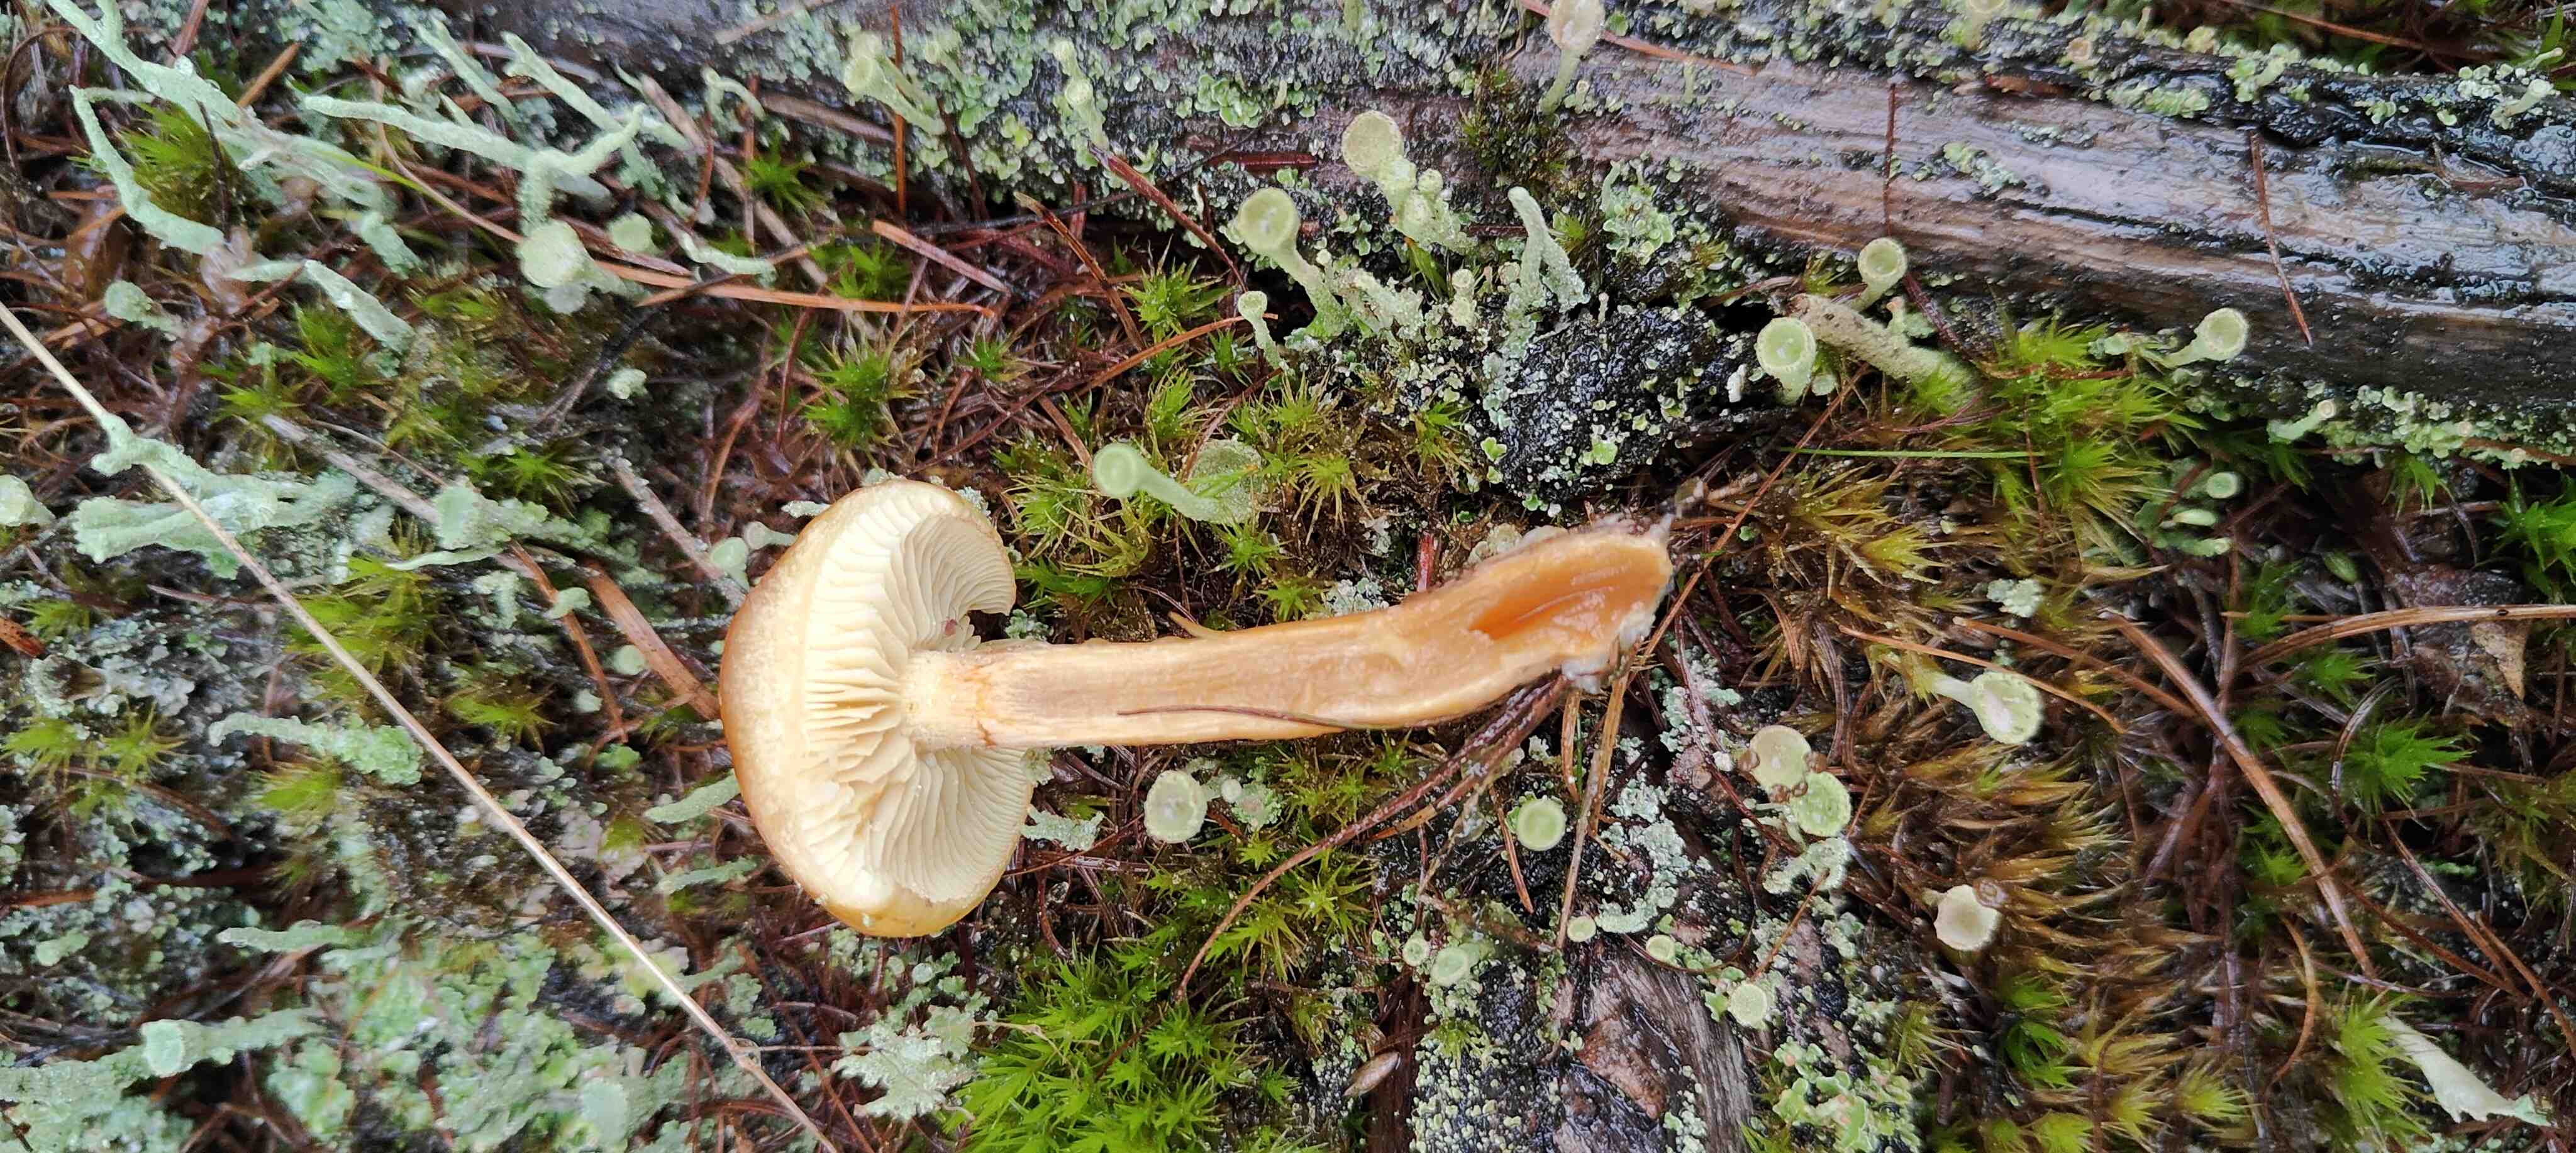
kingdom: Fungi
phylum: Basidiomycota
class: Agaricomycetes
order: Agaricales
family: Hymenogastraceae
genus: Gymnopilus
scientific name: Gymnopilus penetrans
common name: plettet flammehat
